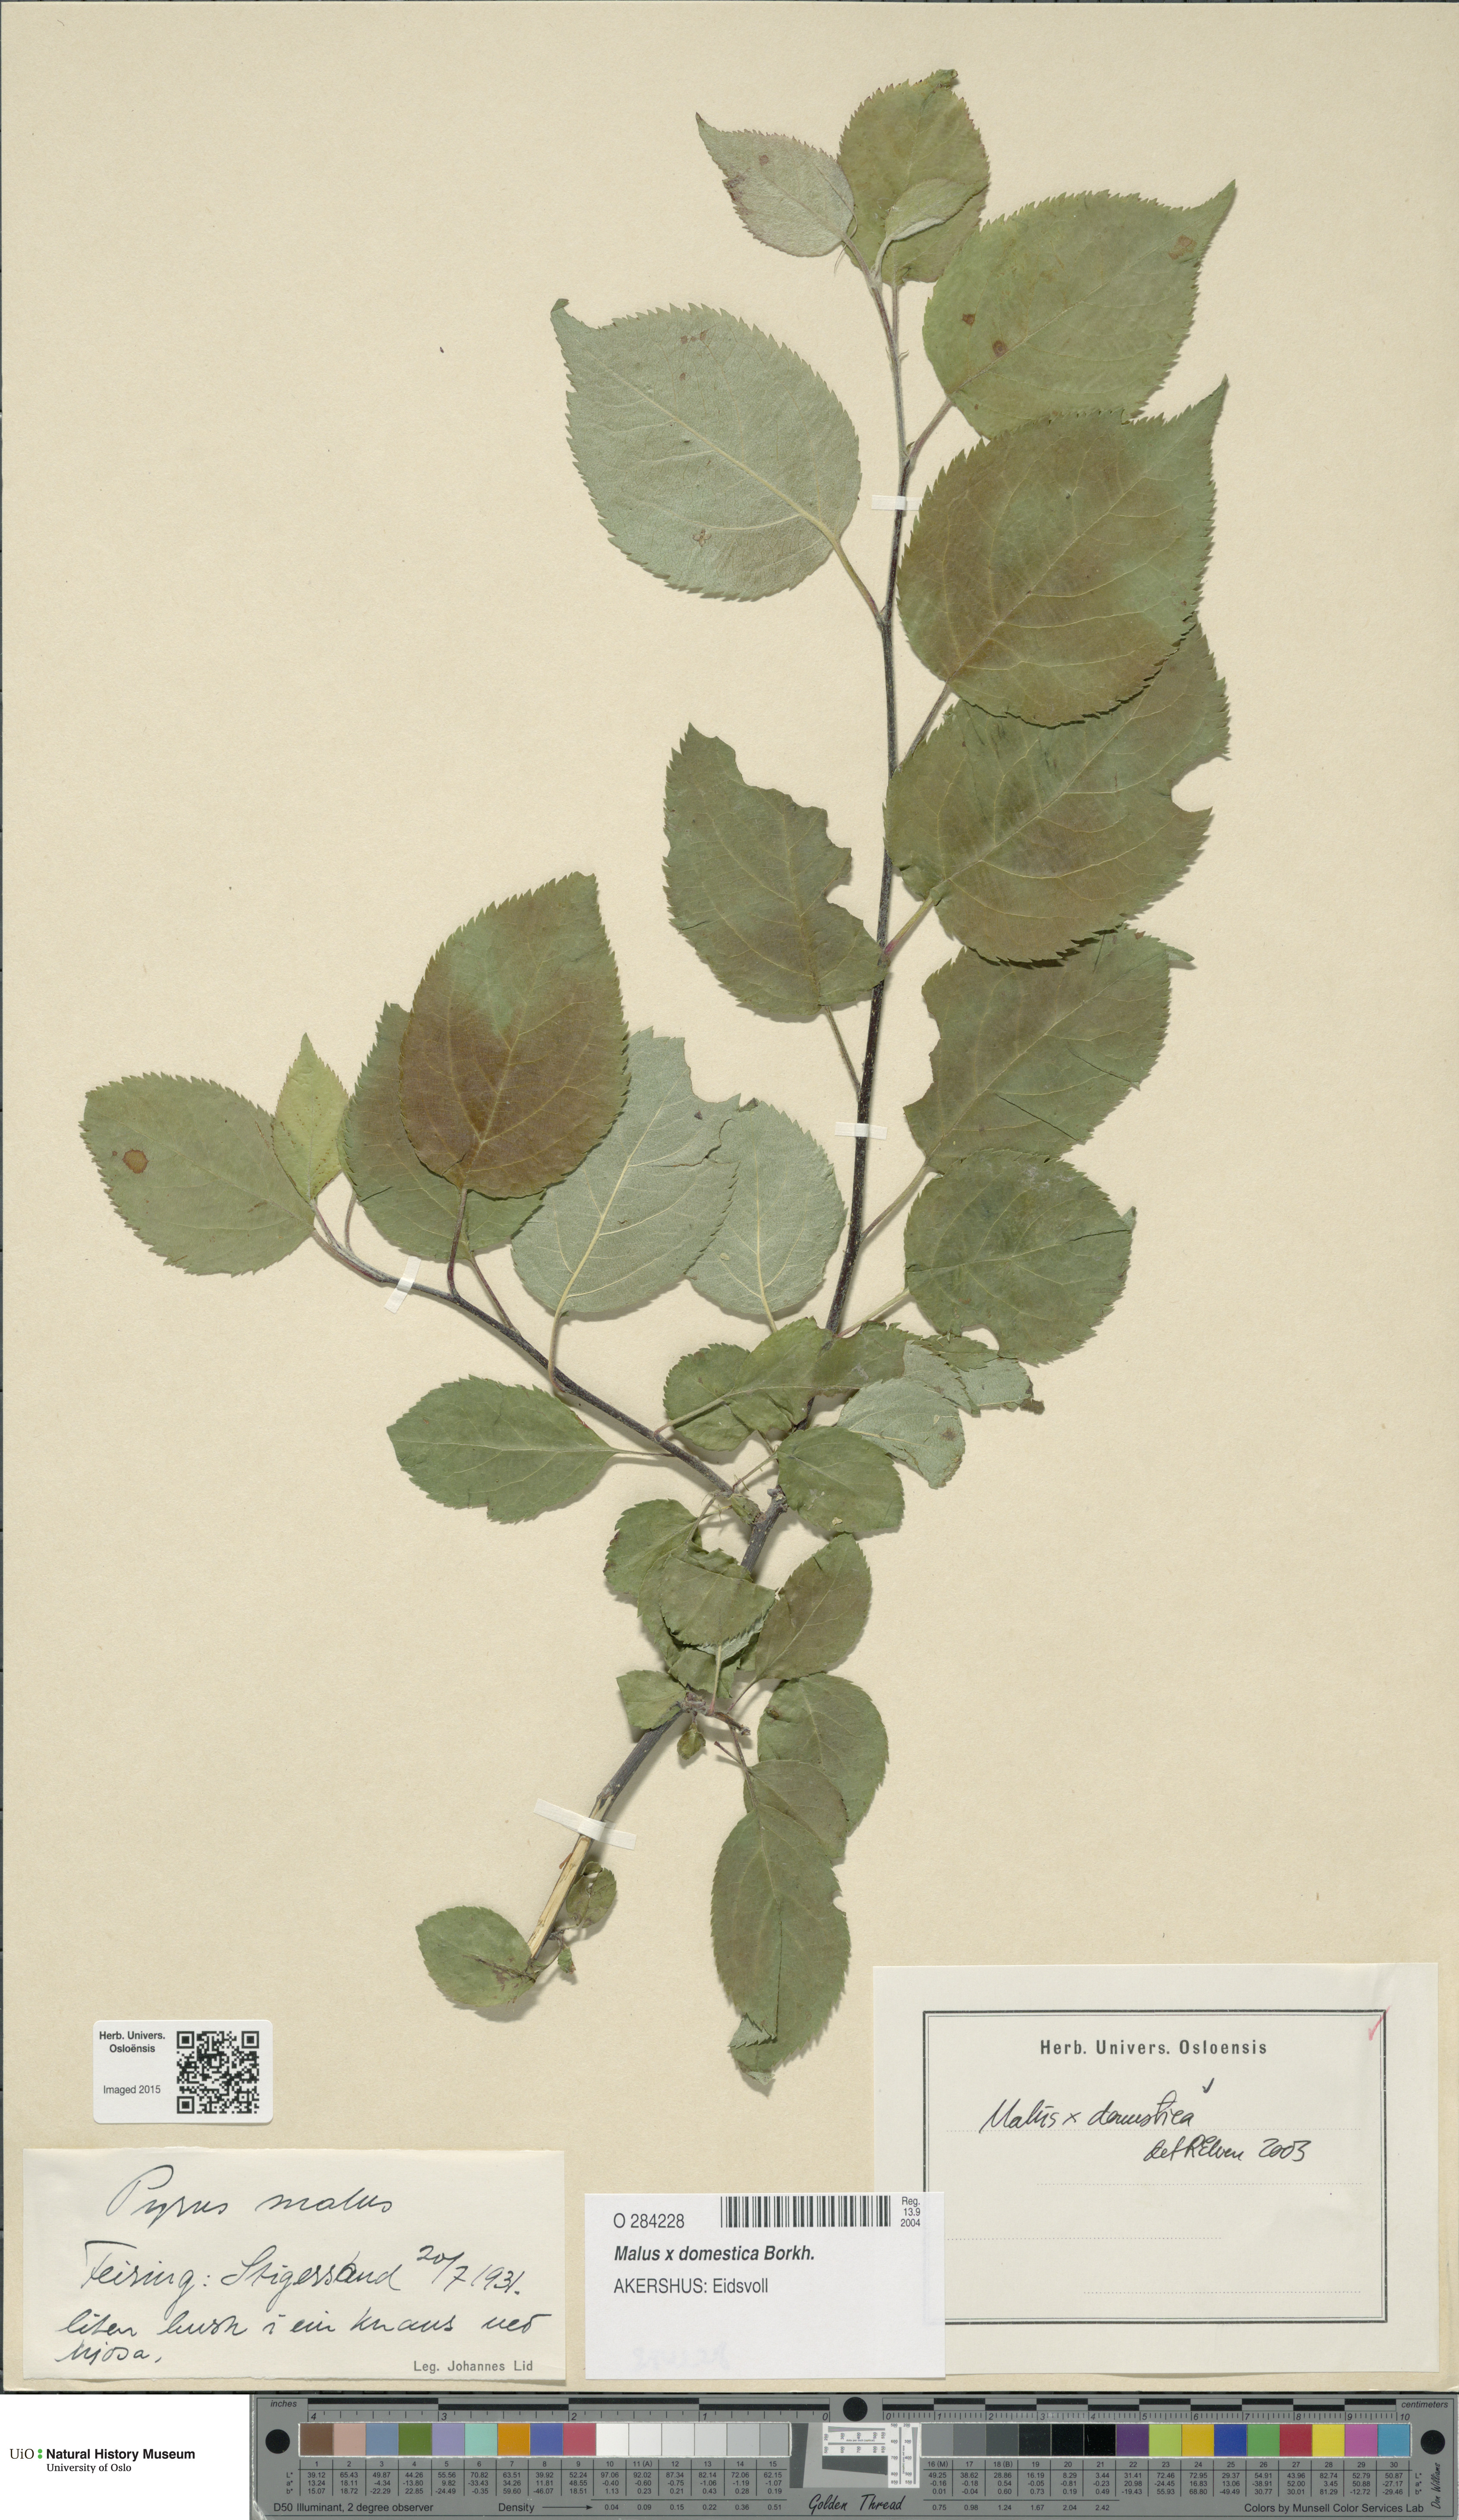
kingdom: Plantae
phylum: Tracheophyta
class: Magnoliopsida
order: Rosales
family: Rosaceae
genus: Malus
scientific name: Malus domestica
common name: Apple
